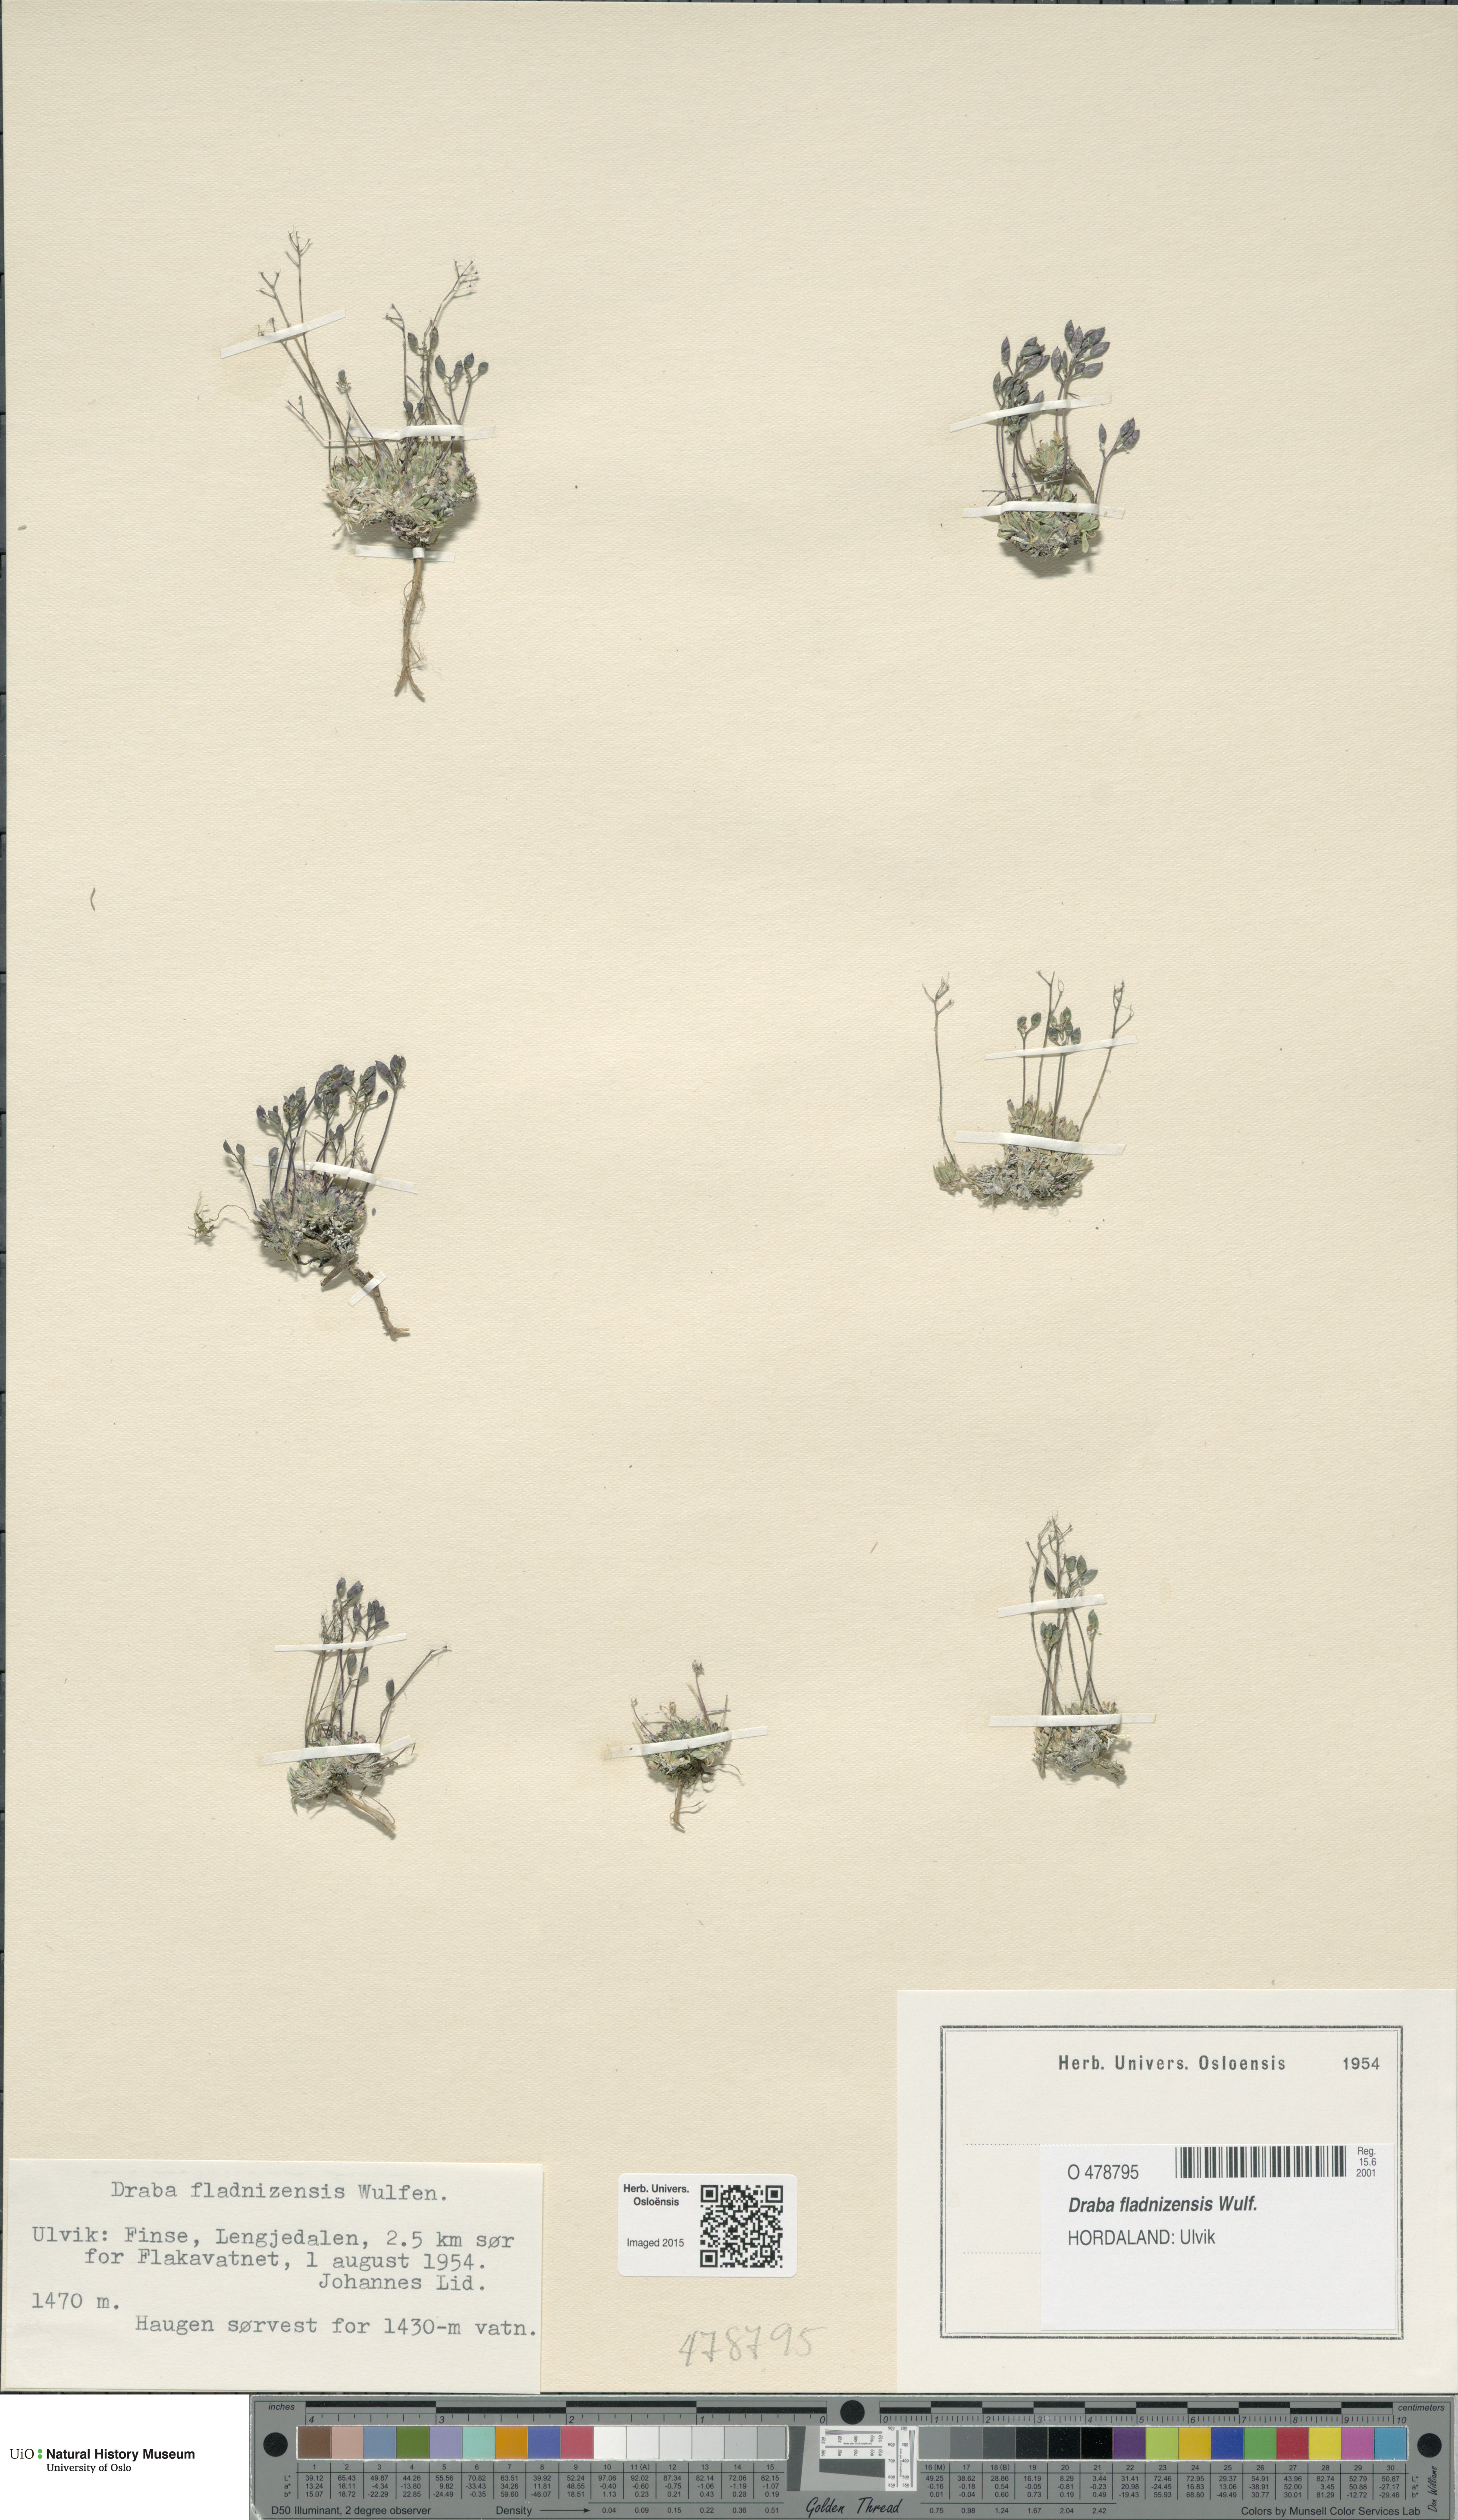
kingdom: Plantae
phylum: Tracheophyta
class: Magnoliopsida
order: Brassicales
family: Brassicaceae
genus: Draba
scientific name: Draba fladnizensis
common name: Austrian draba
